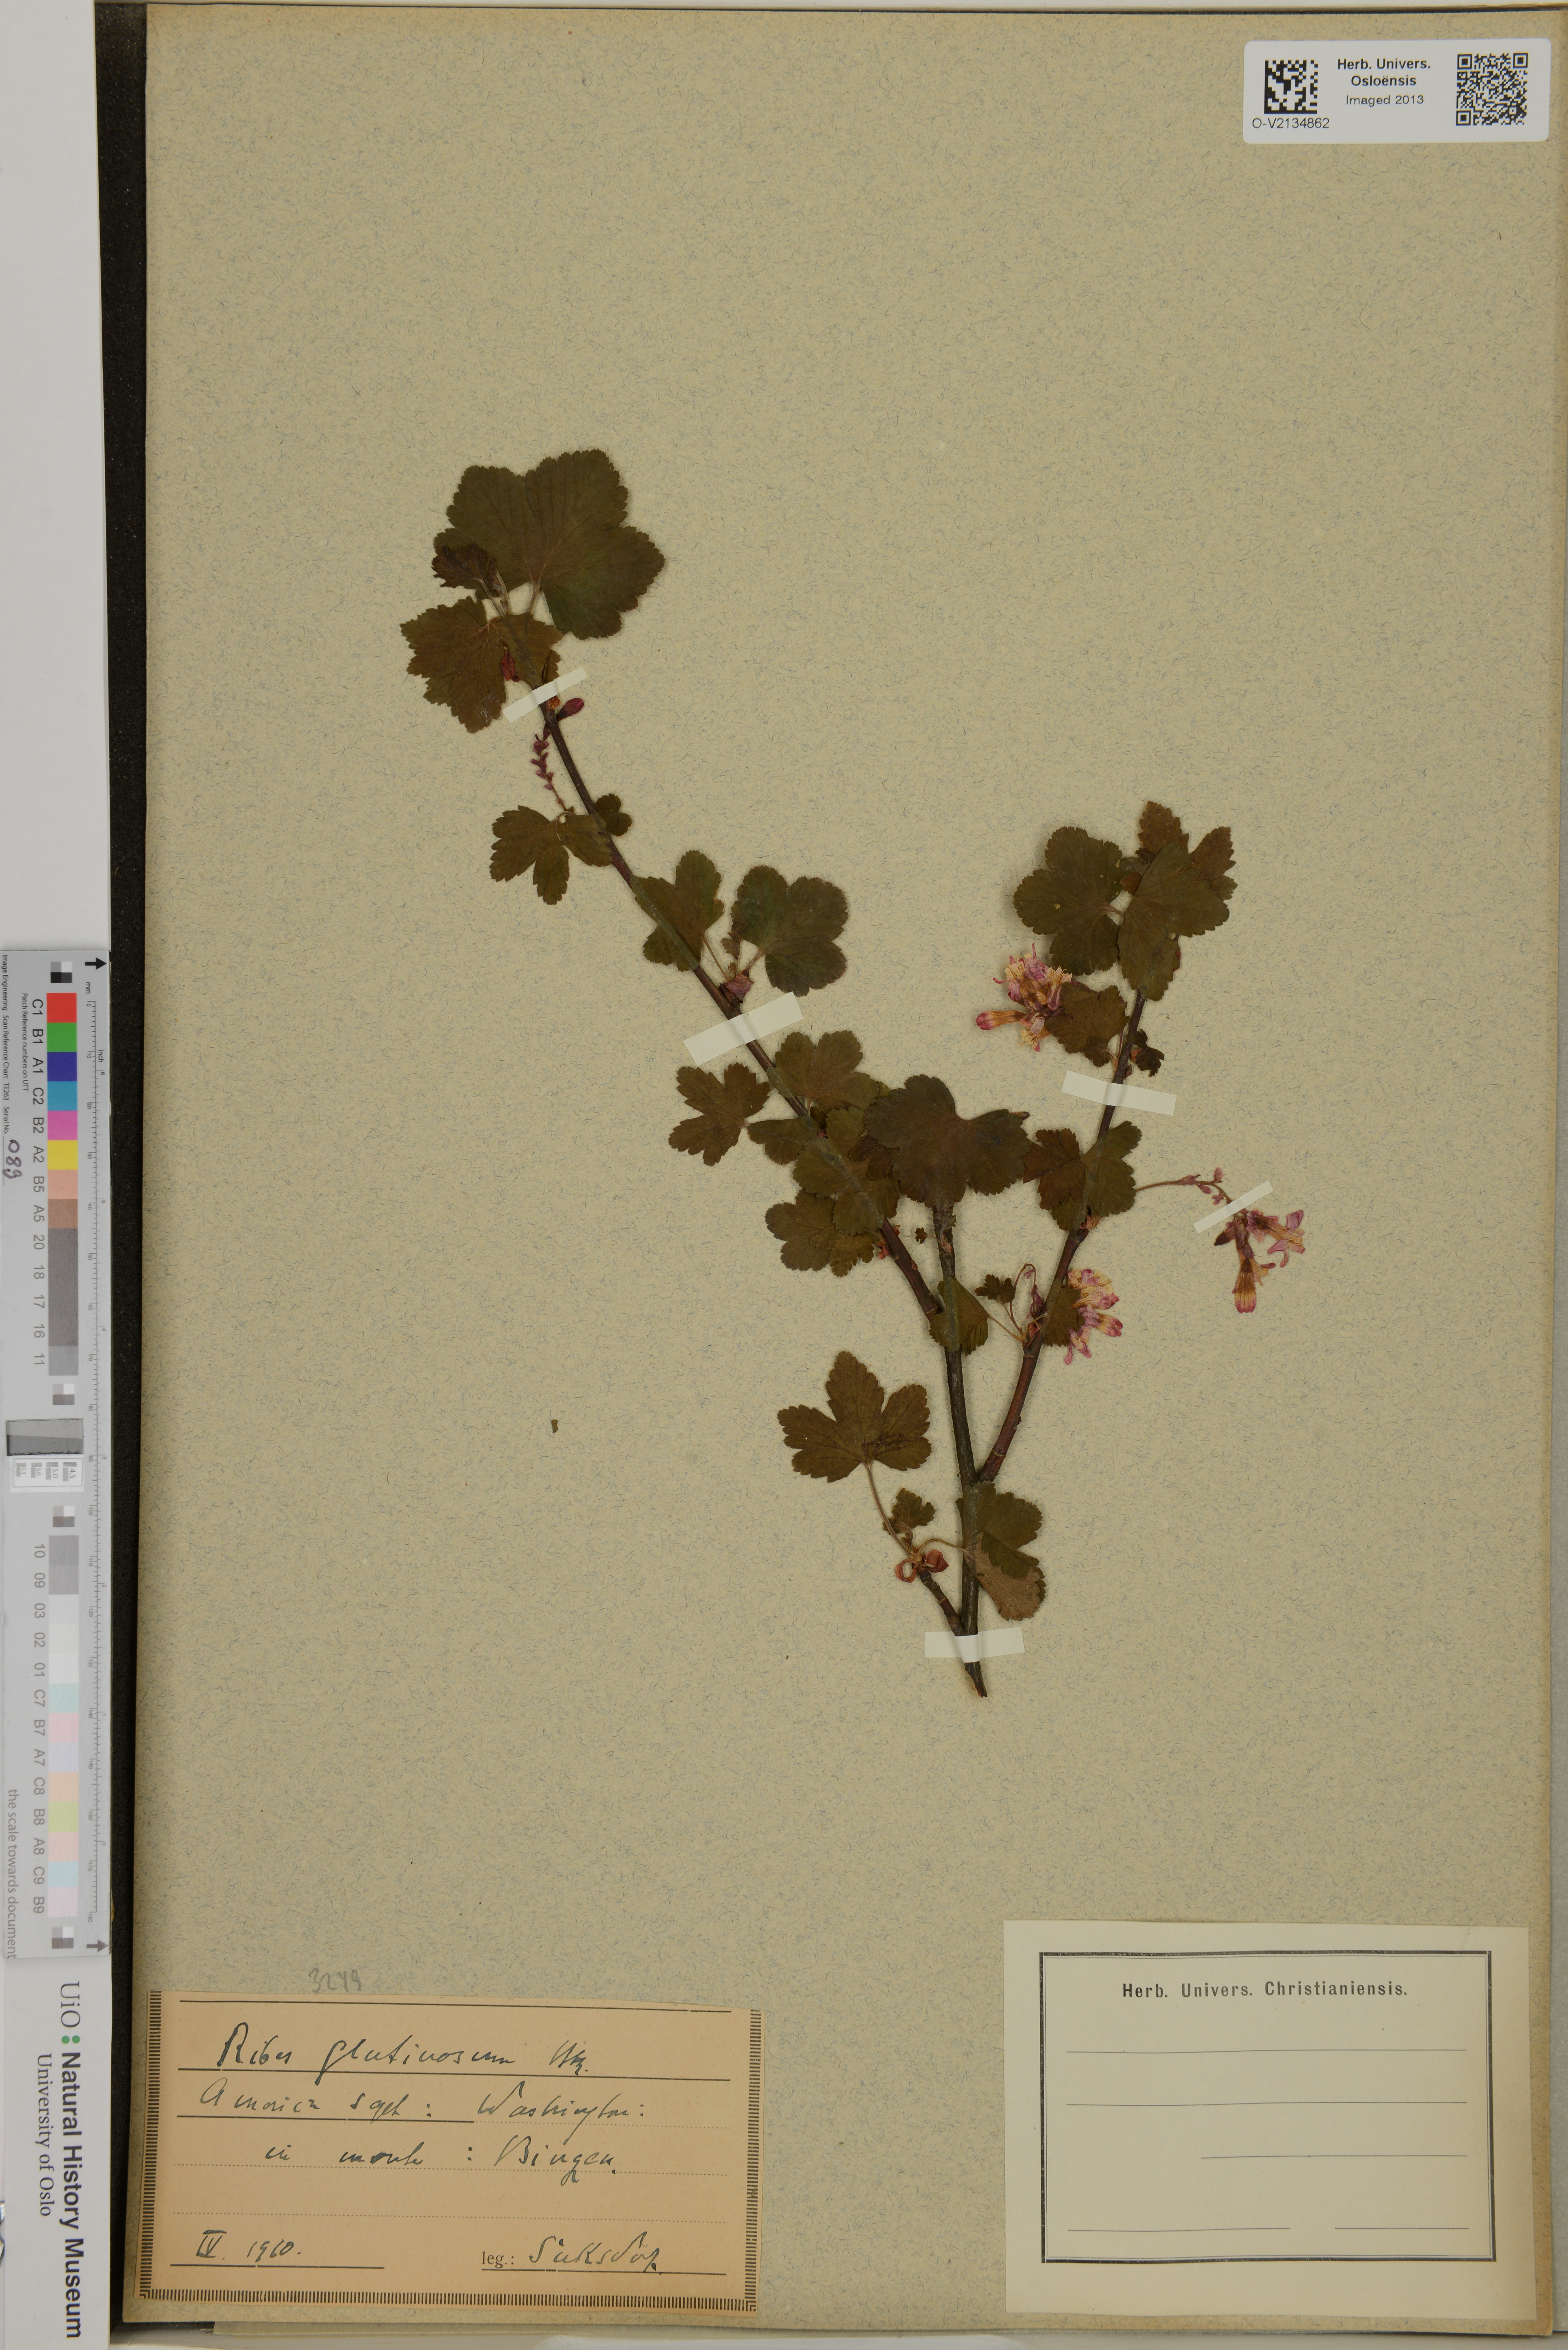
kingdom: Plantae
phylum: Tracheophyta
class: Magnoliopsida
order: Saxifragales
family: Grossulariaceae
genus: Ribes
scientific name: Ribes
